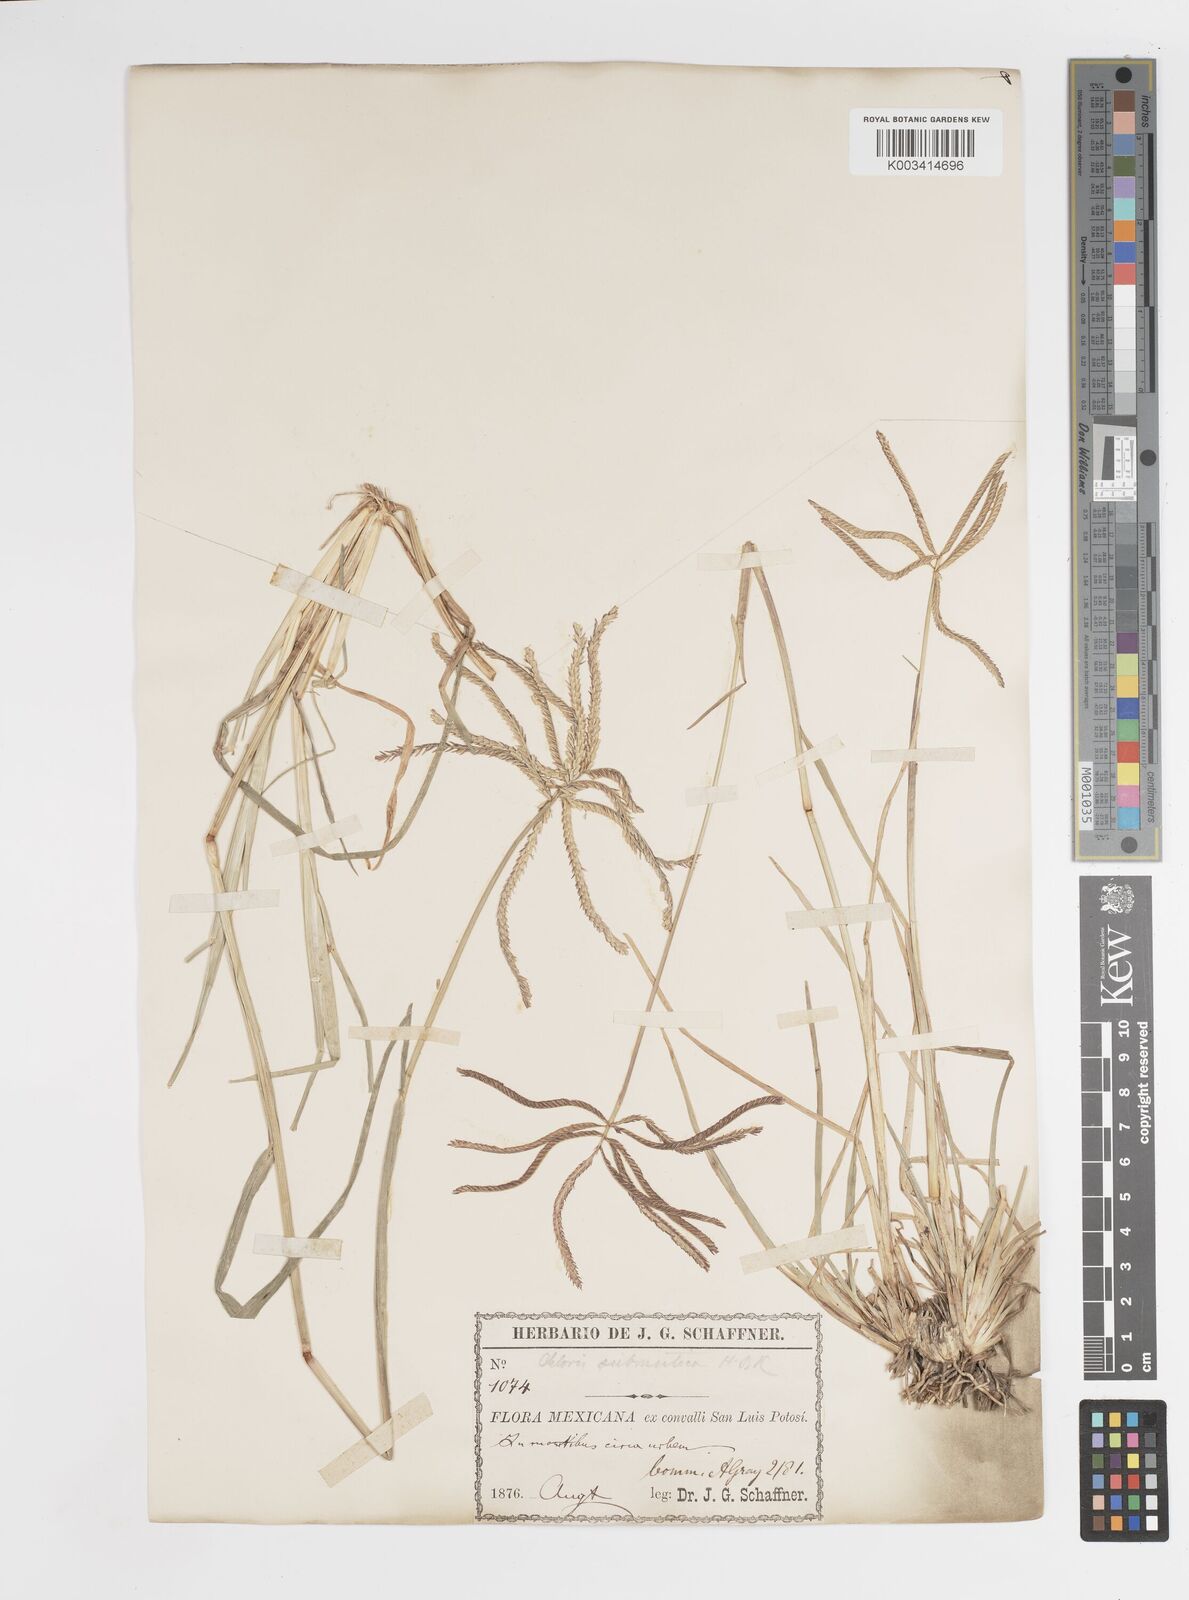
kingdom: Plantae
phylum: Tracheophyta
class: Liliopsida
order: Poales
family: Poaceae
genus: Chloris
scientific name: Chloris submutica
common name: Mexican windmill grass
